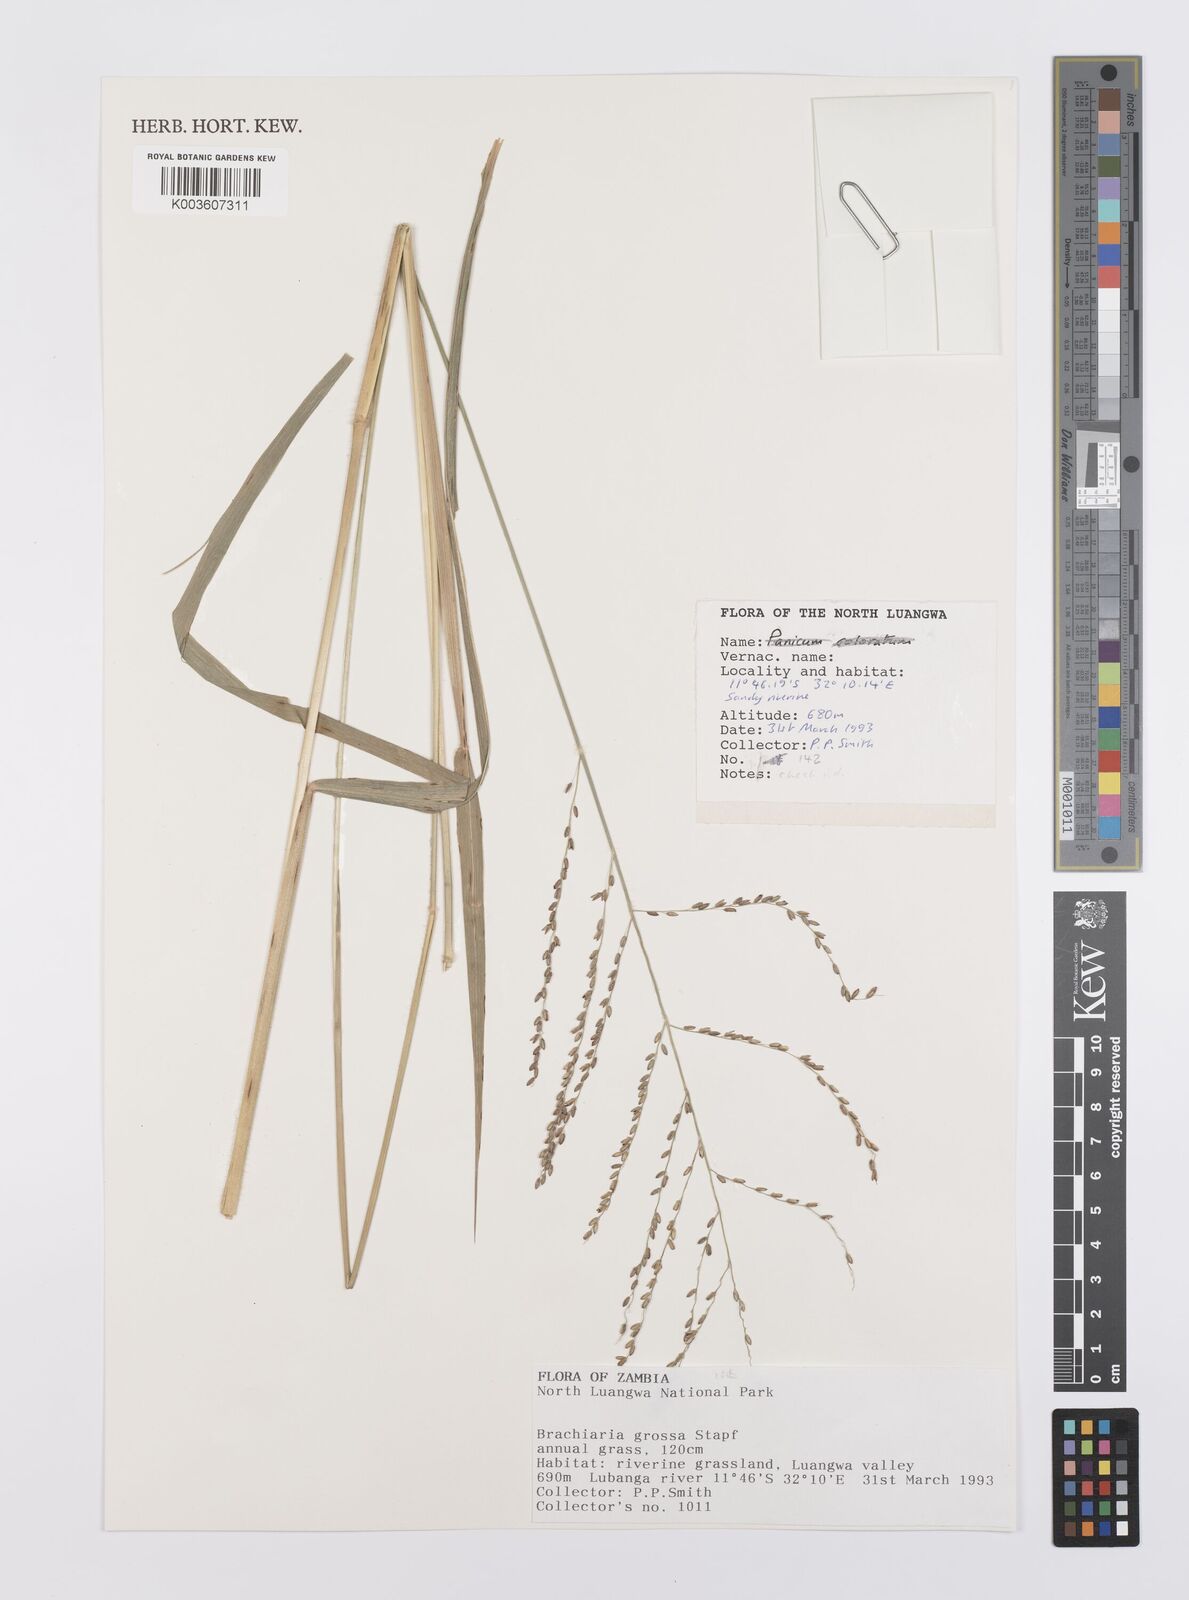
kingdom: Plantae
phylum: Tracheophyta
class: Liliopsida
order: Poales
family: Poaceae
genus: Urochloa
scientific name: Urochloa Brachiaria grossa
